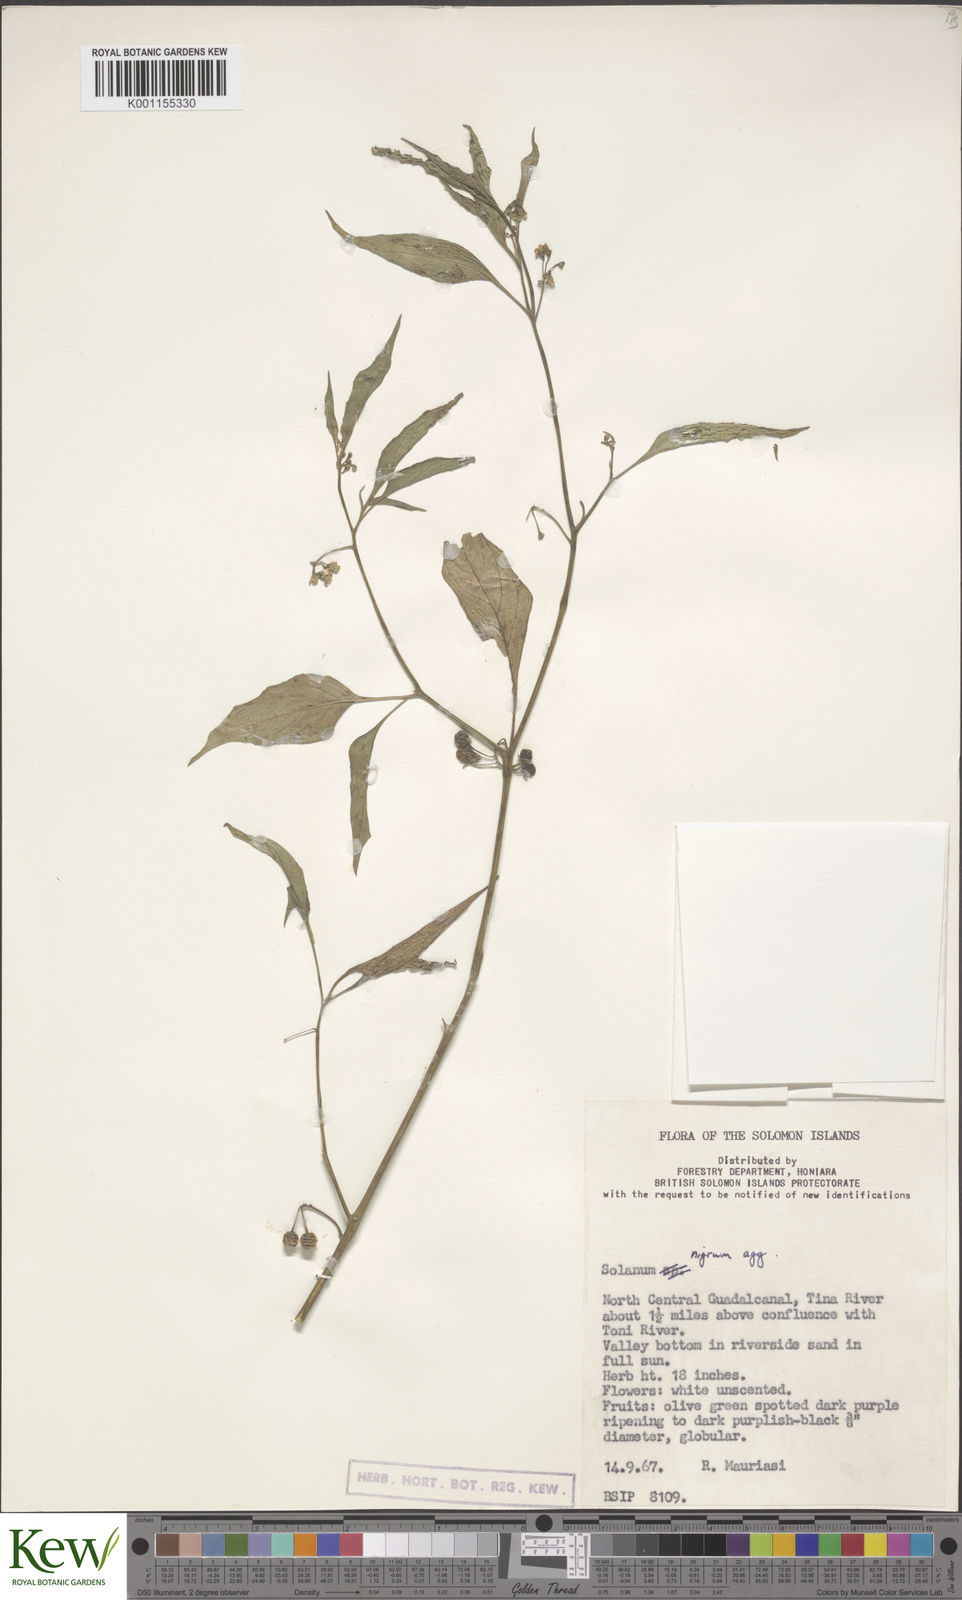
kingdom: Plantae
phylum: Tracheophyta
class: Magnoliopsida
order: Solanales
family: Solanaceae
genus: Solanum
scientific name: Solanum
